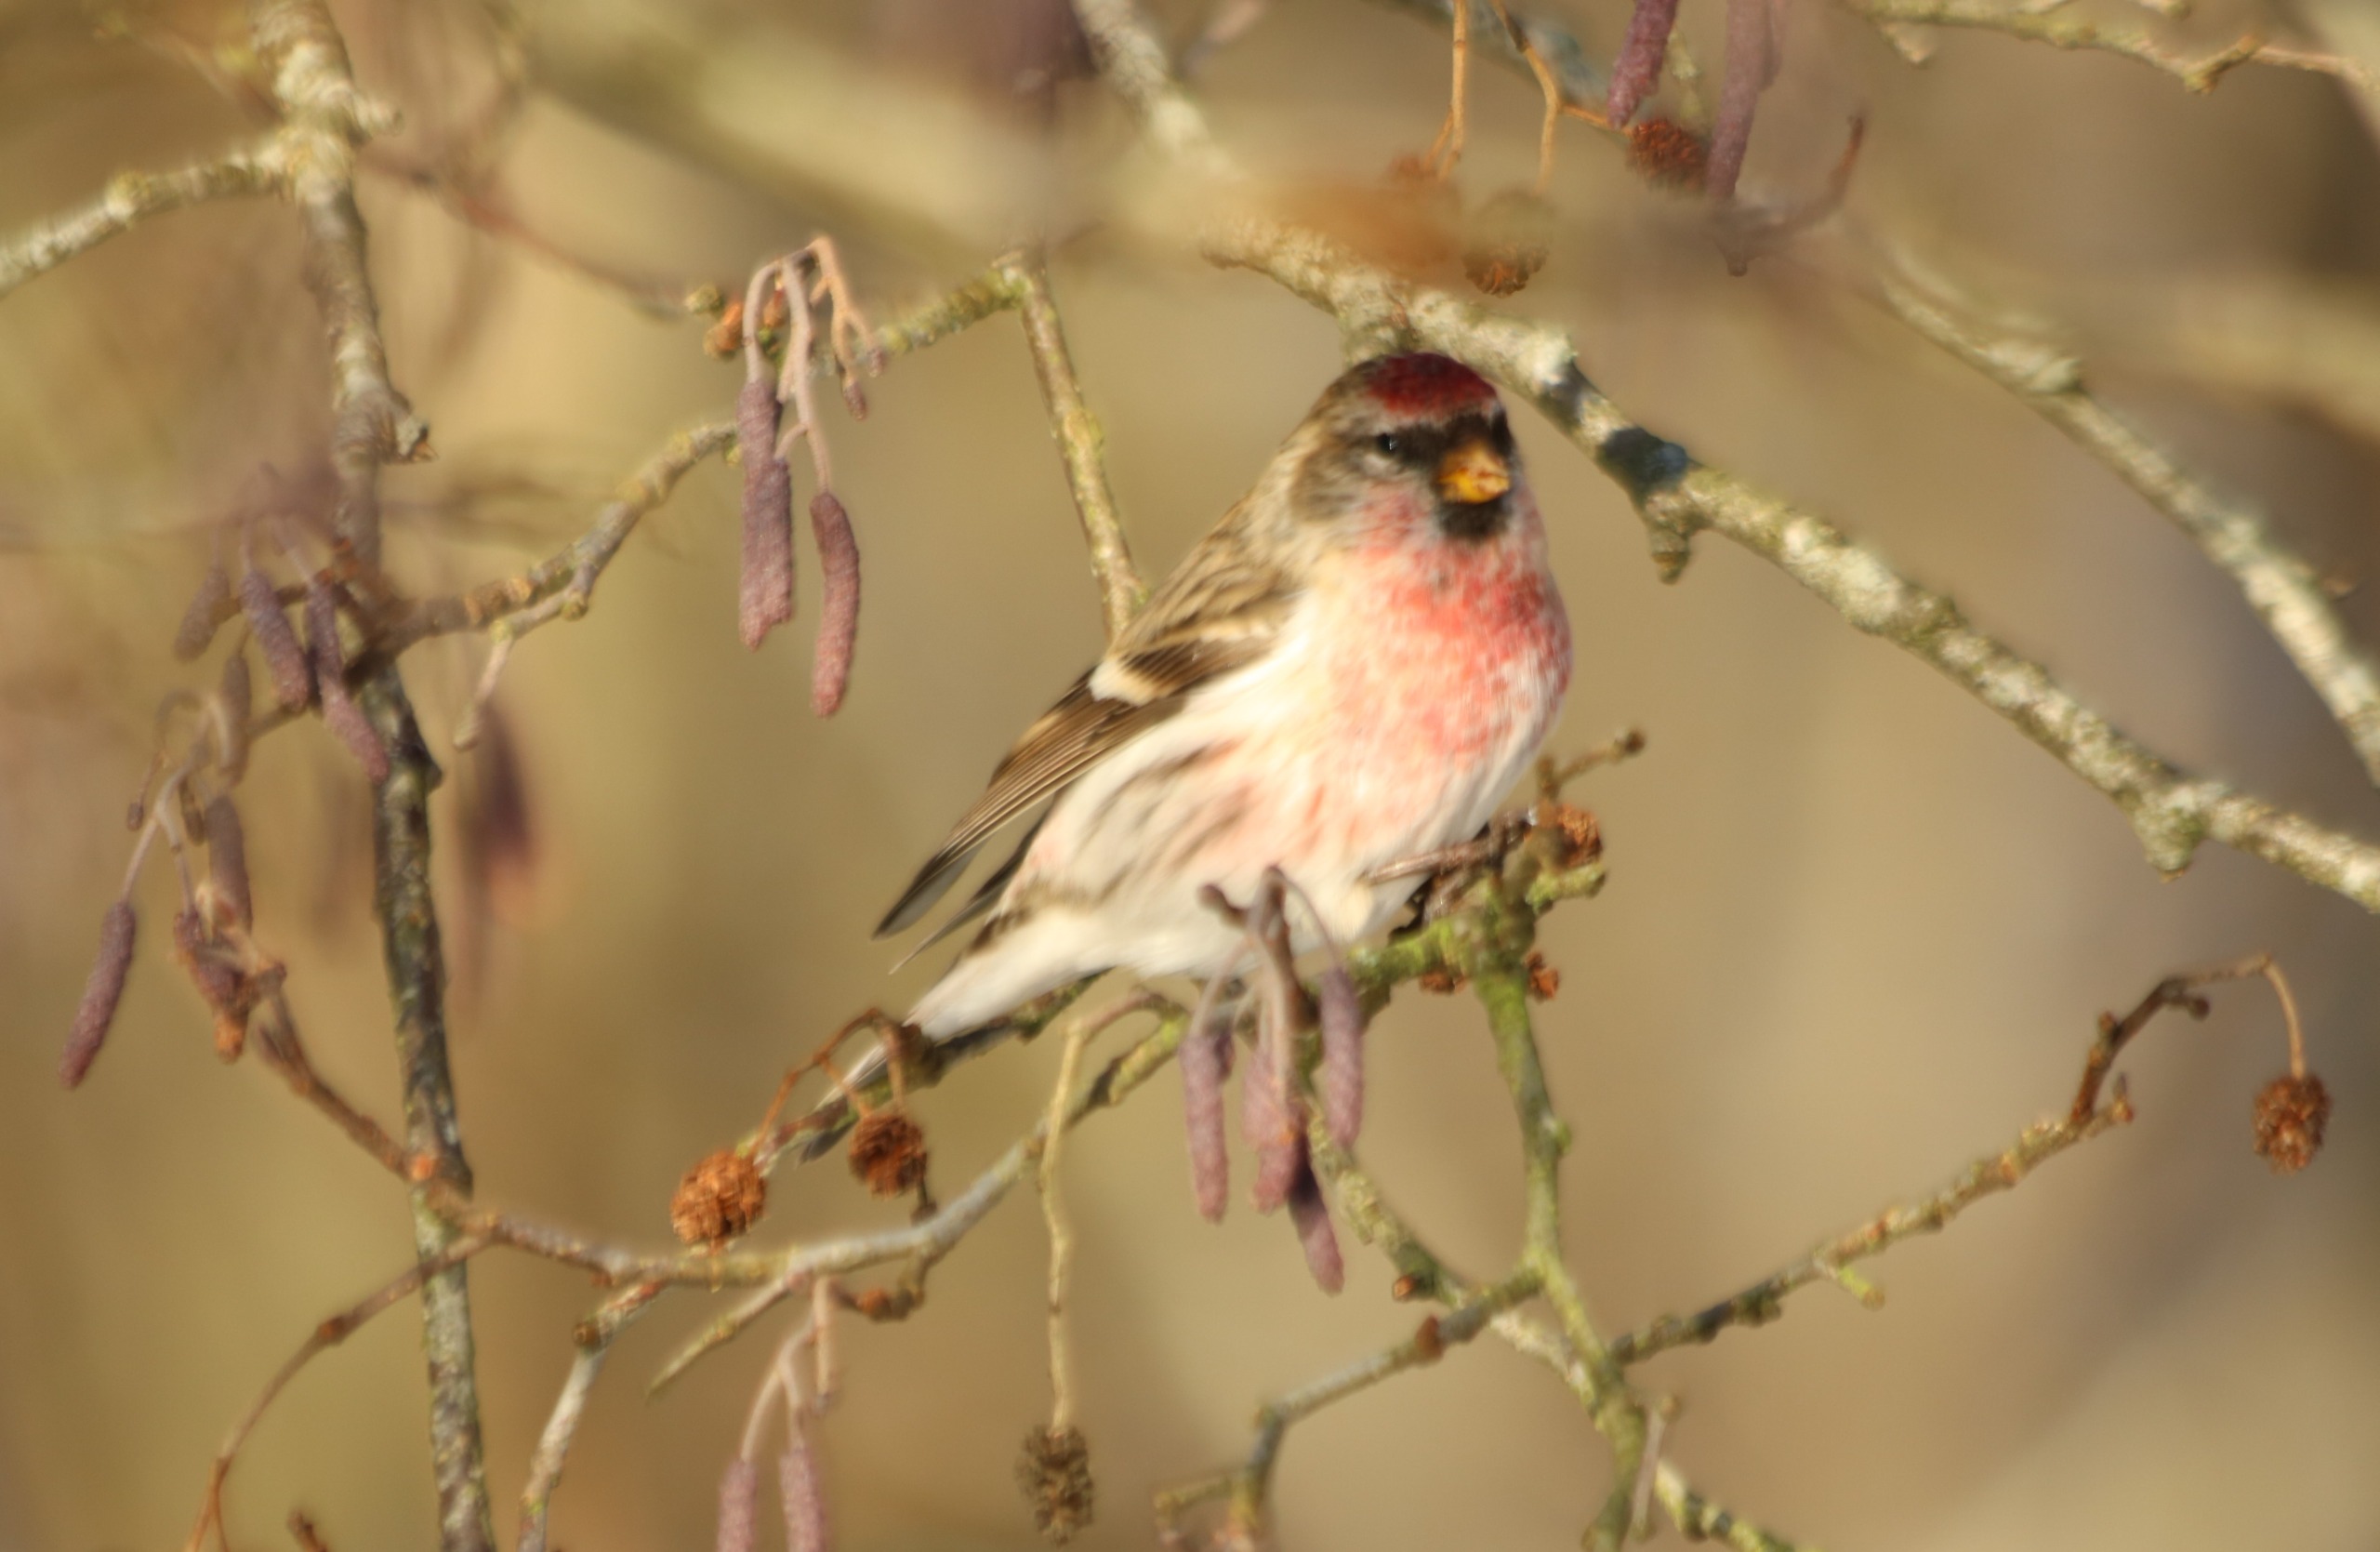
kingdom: Animalia
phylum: Chordata
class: Aves
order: Passeriformes
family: Fringillidae
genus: Acanthis
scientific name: Acanthis flammea
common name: Nordlig gråsisken
